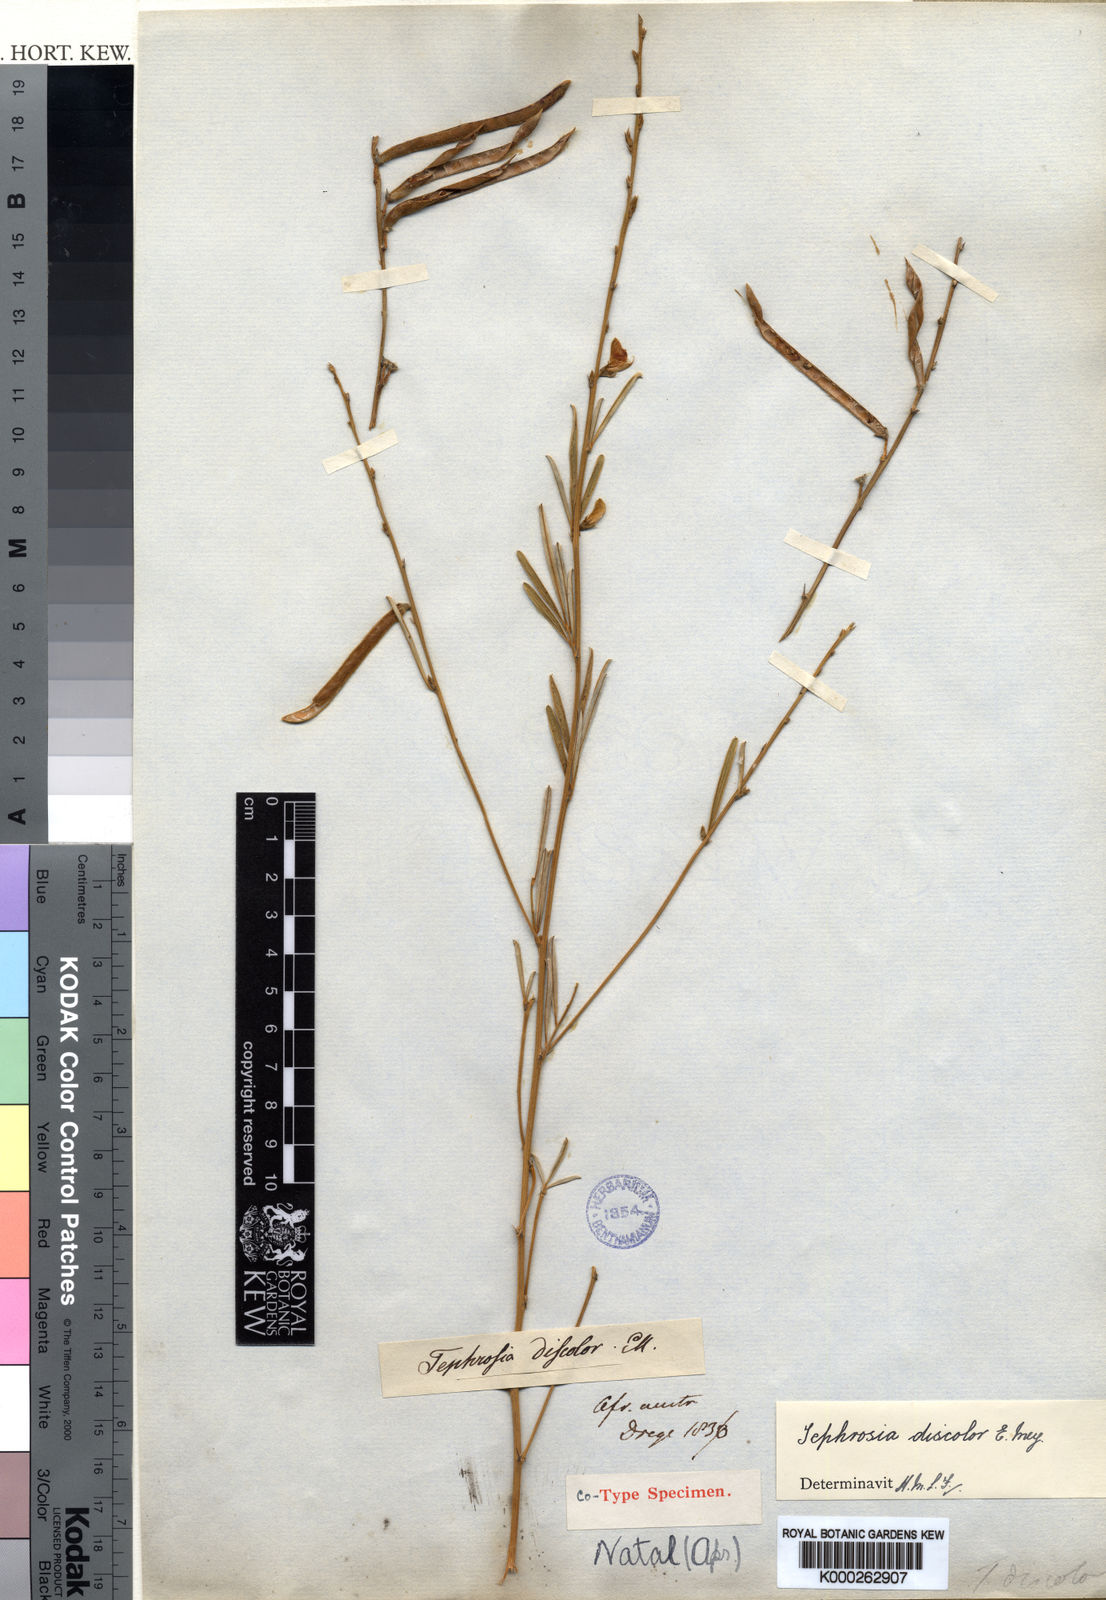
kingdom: Plantae
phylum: Tracheophyta
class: Magnoliopsida
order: Fabales
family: Fabaceae
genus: Tephrosia
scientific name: Tephrosia linearis
